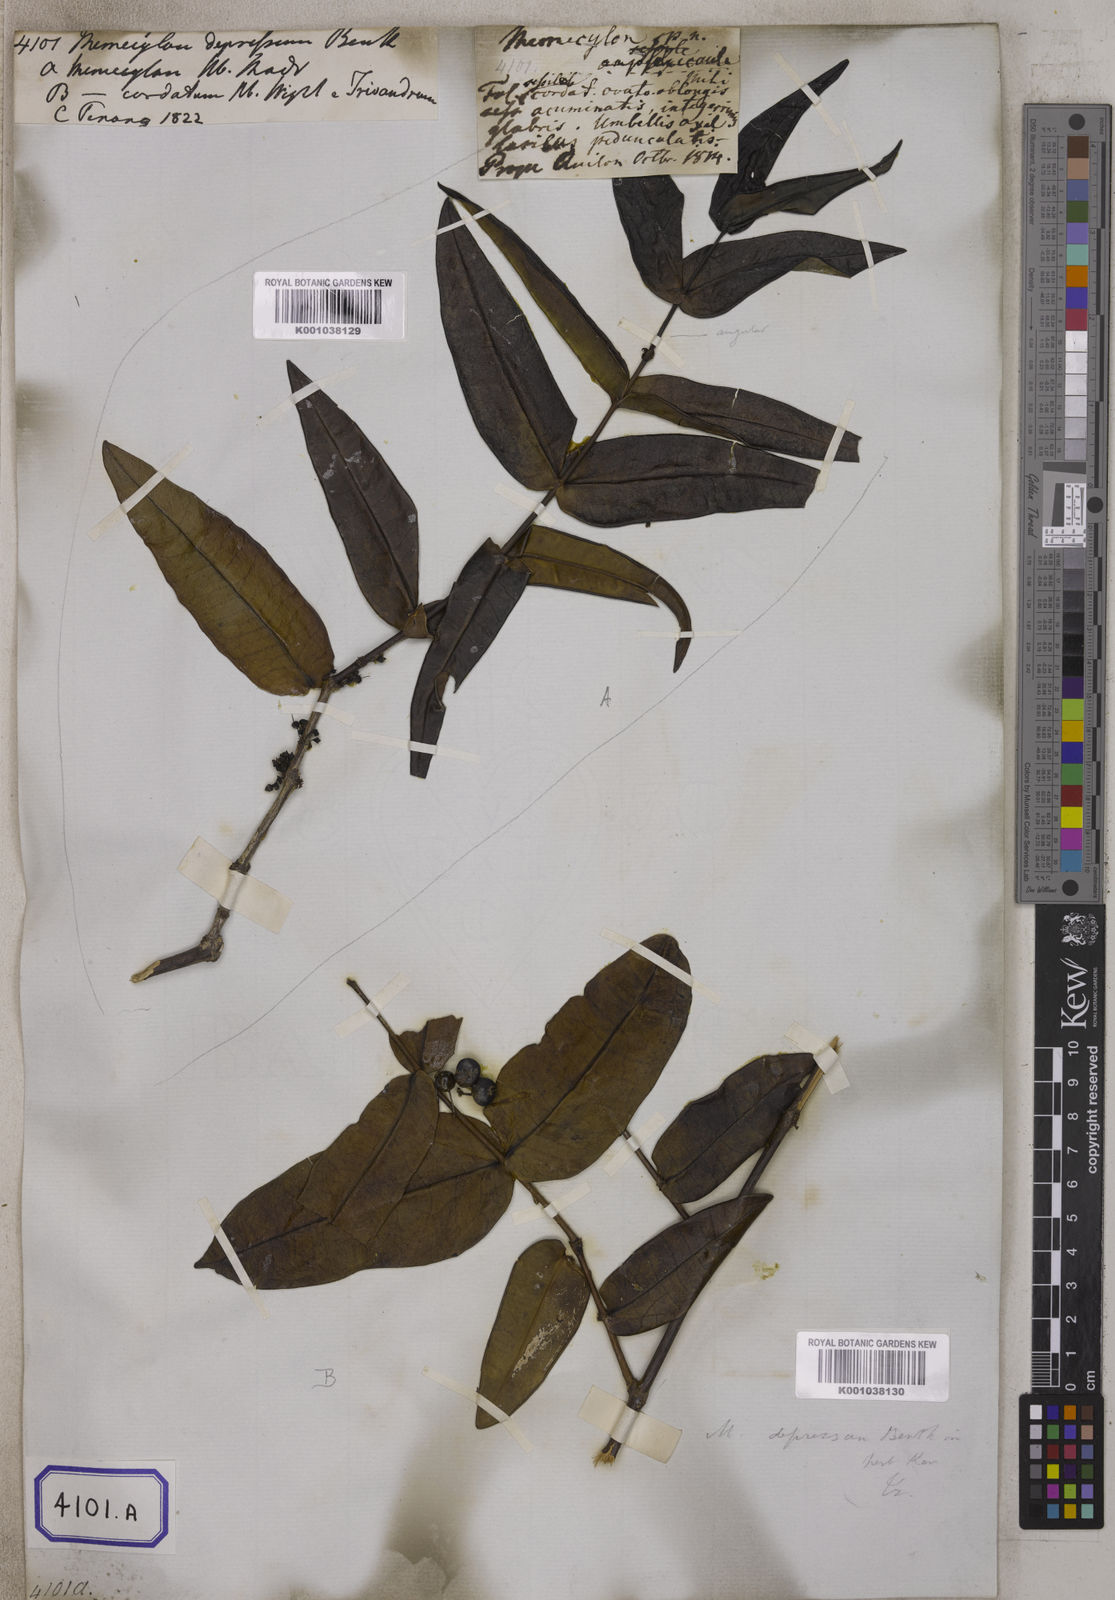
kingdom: Plantae
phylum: Tracheophyta
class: Magnoliopsida
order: Myrtales
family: Melastomataceae
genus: Memecylon
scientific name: Memecylon wallichii
